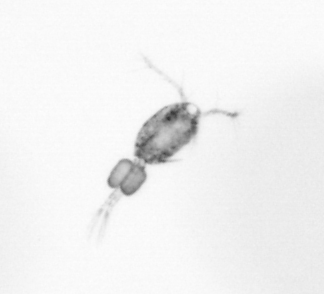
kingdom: Animalia
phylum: Arthropoda
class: Copepoda
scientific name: Copepoda
